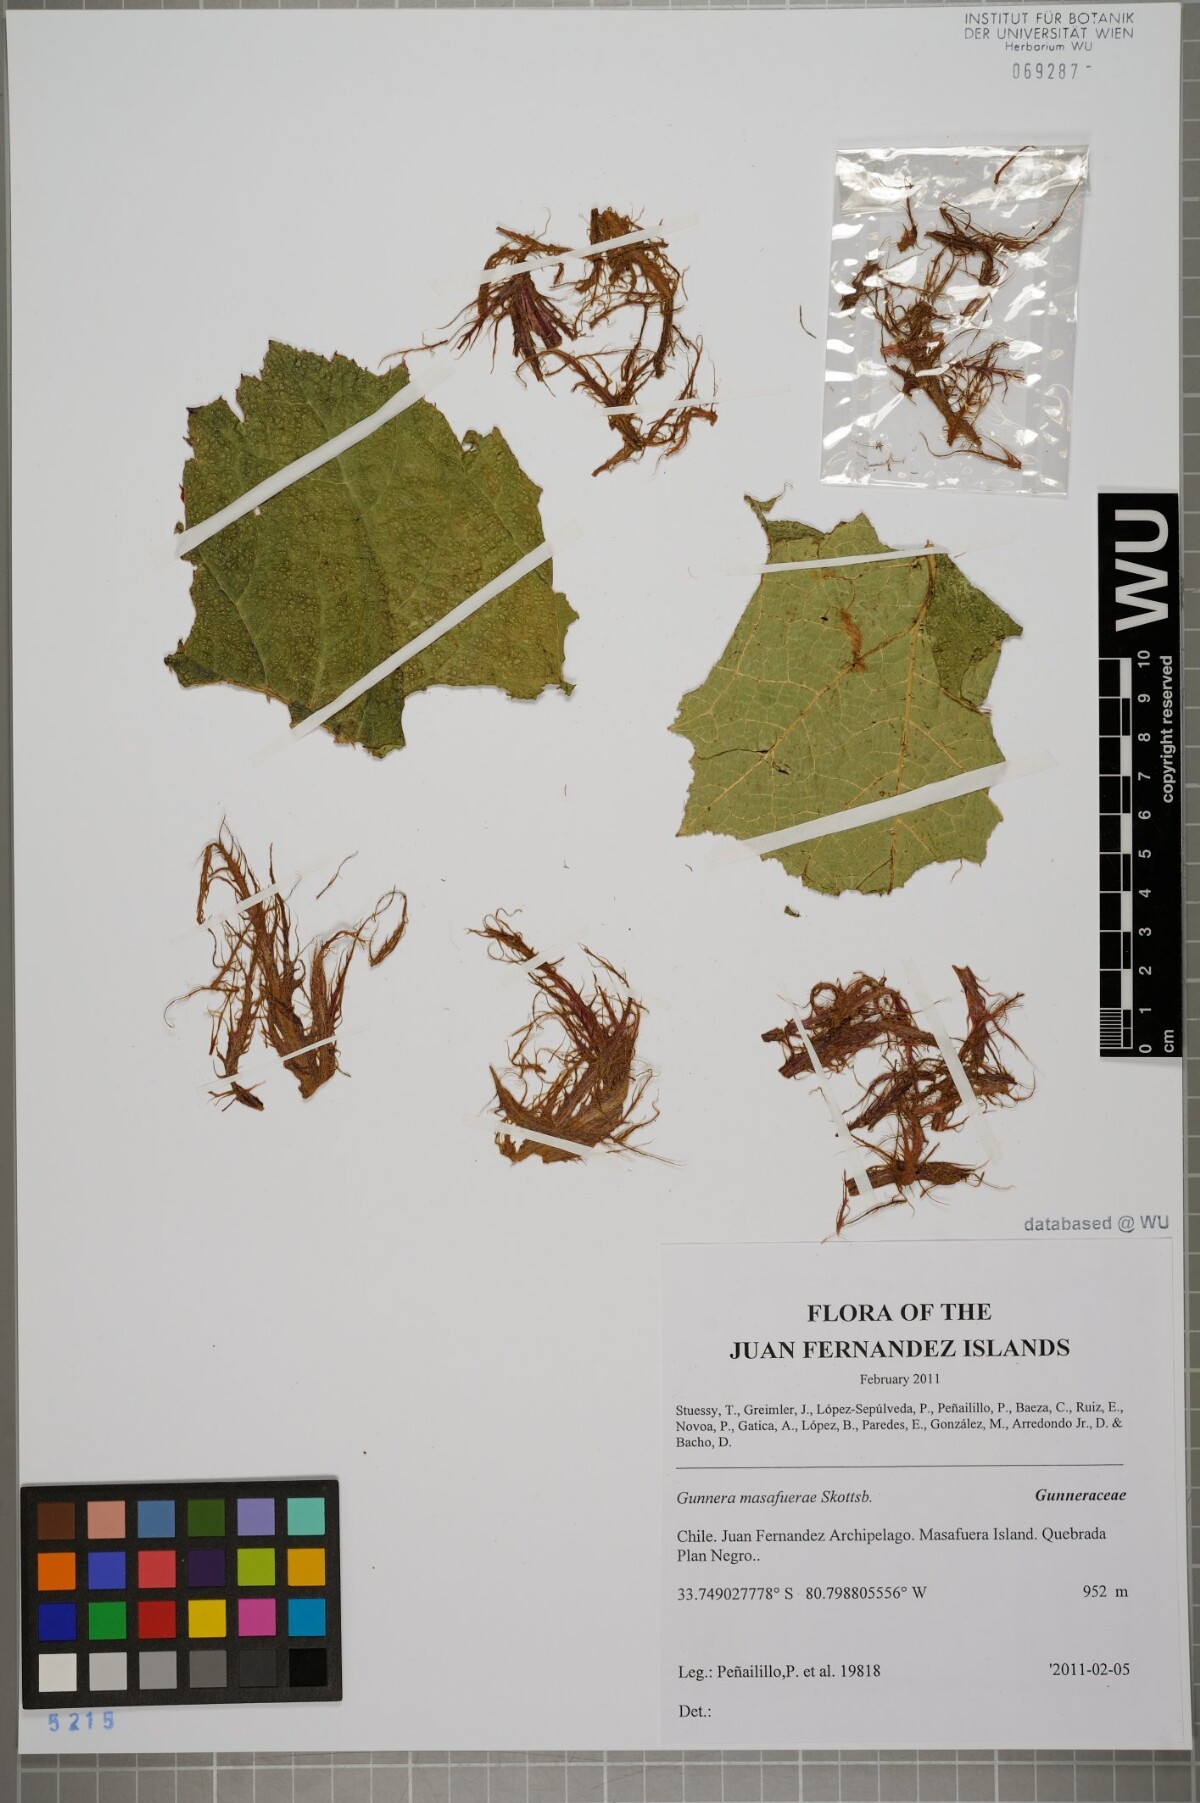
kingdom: Plantae
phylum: Tracheophyta
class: Magnoliopsida
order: Gunnerales
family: Gunneraceae
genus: Gunnera
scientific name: Gunnera masafuerae
